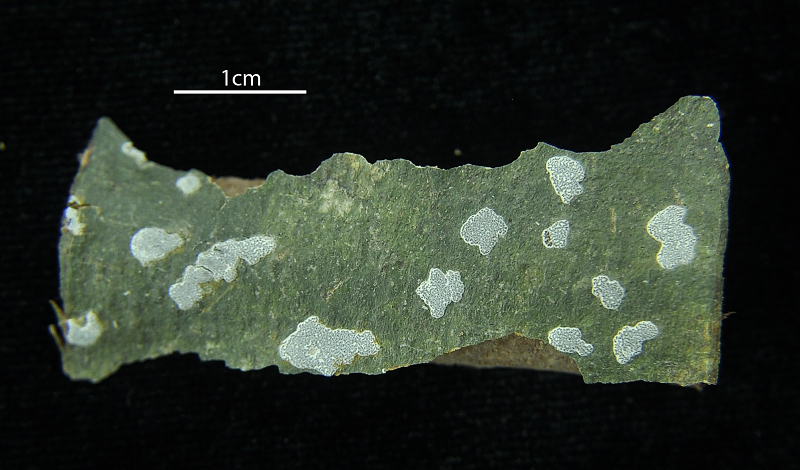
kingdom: Fungi
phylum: Ascomycota
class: Lecanoromycetes
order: Ostropales
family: Graphidaceae
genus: Sarcographa
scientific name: Sarcographa
